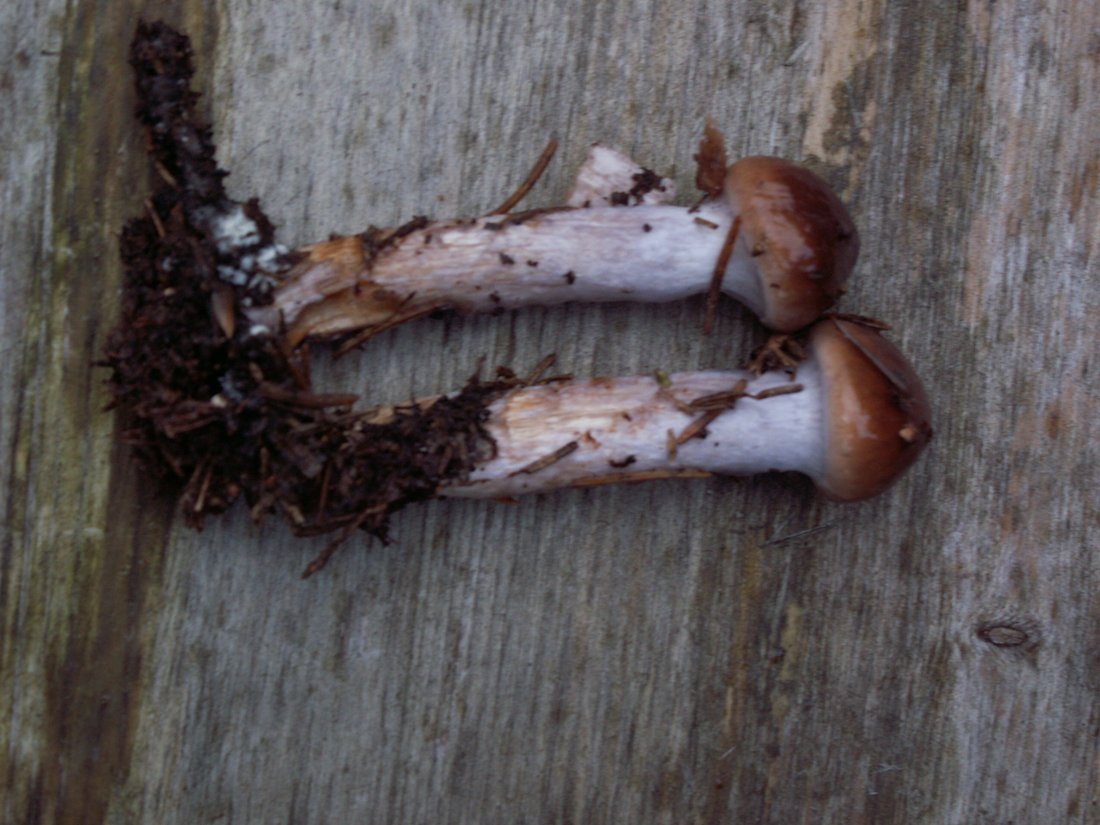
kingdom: Fungi
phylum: Basidiomycota
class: Agaricomycetes
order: Agaricales
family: Cortinariaceae
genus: Cortinarius
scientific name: Cortinarius collinitus
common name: spættet slørhat
